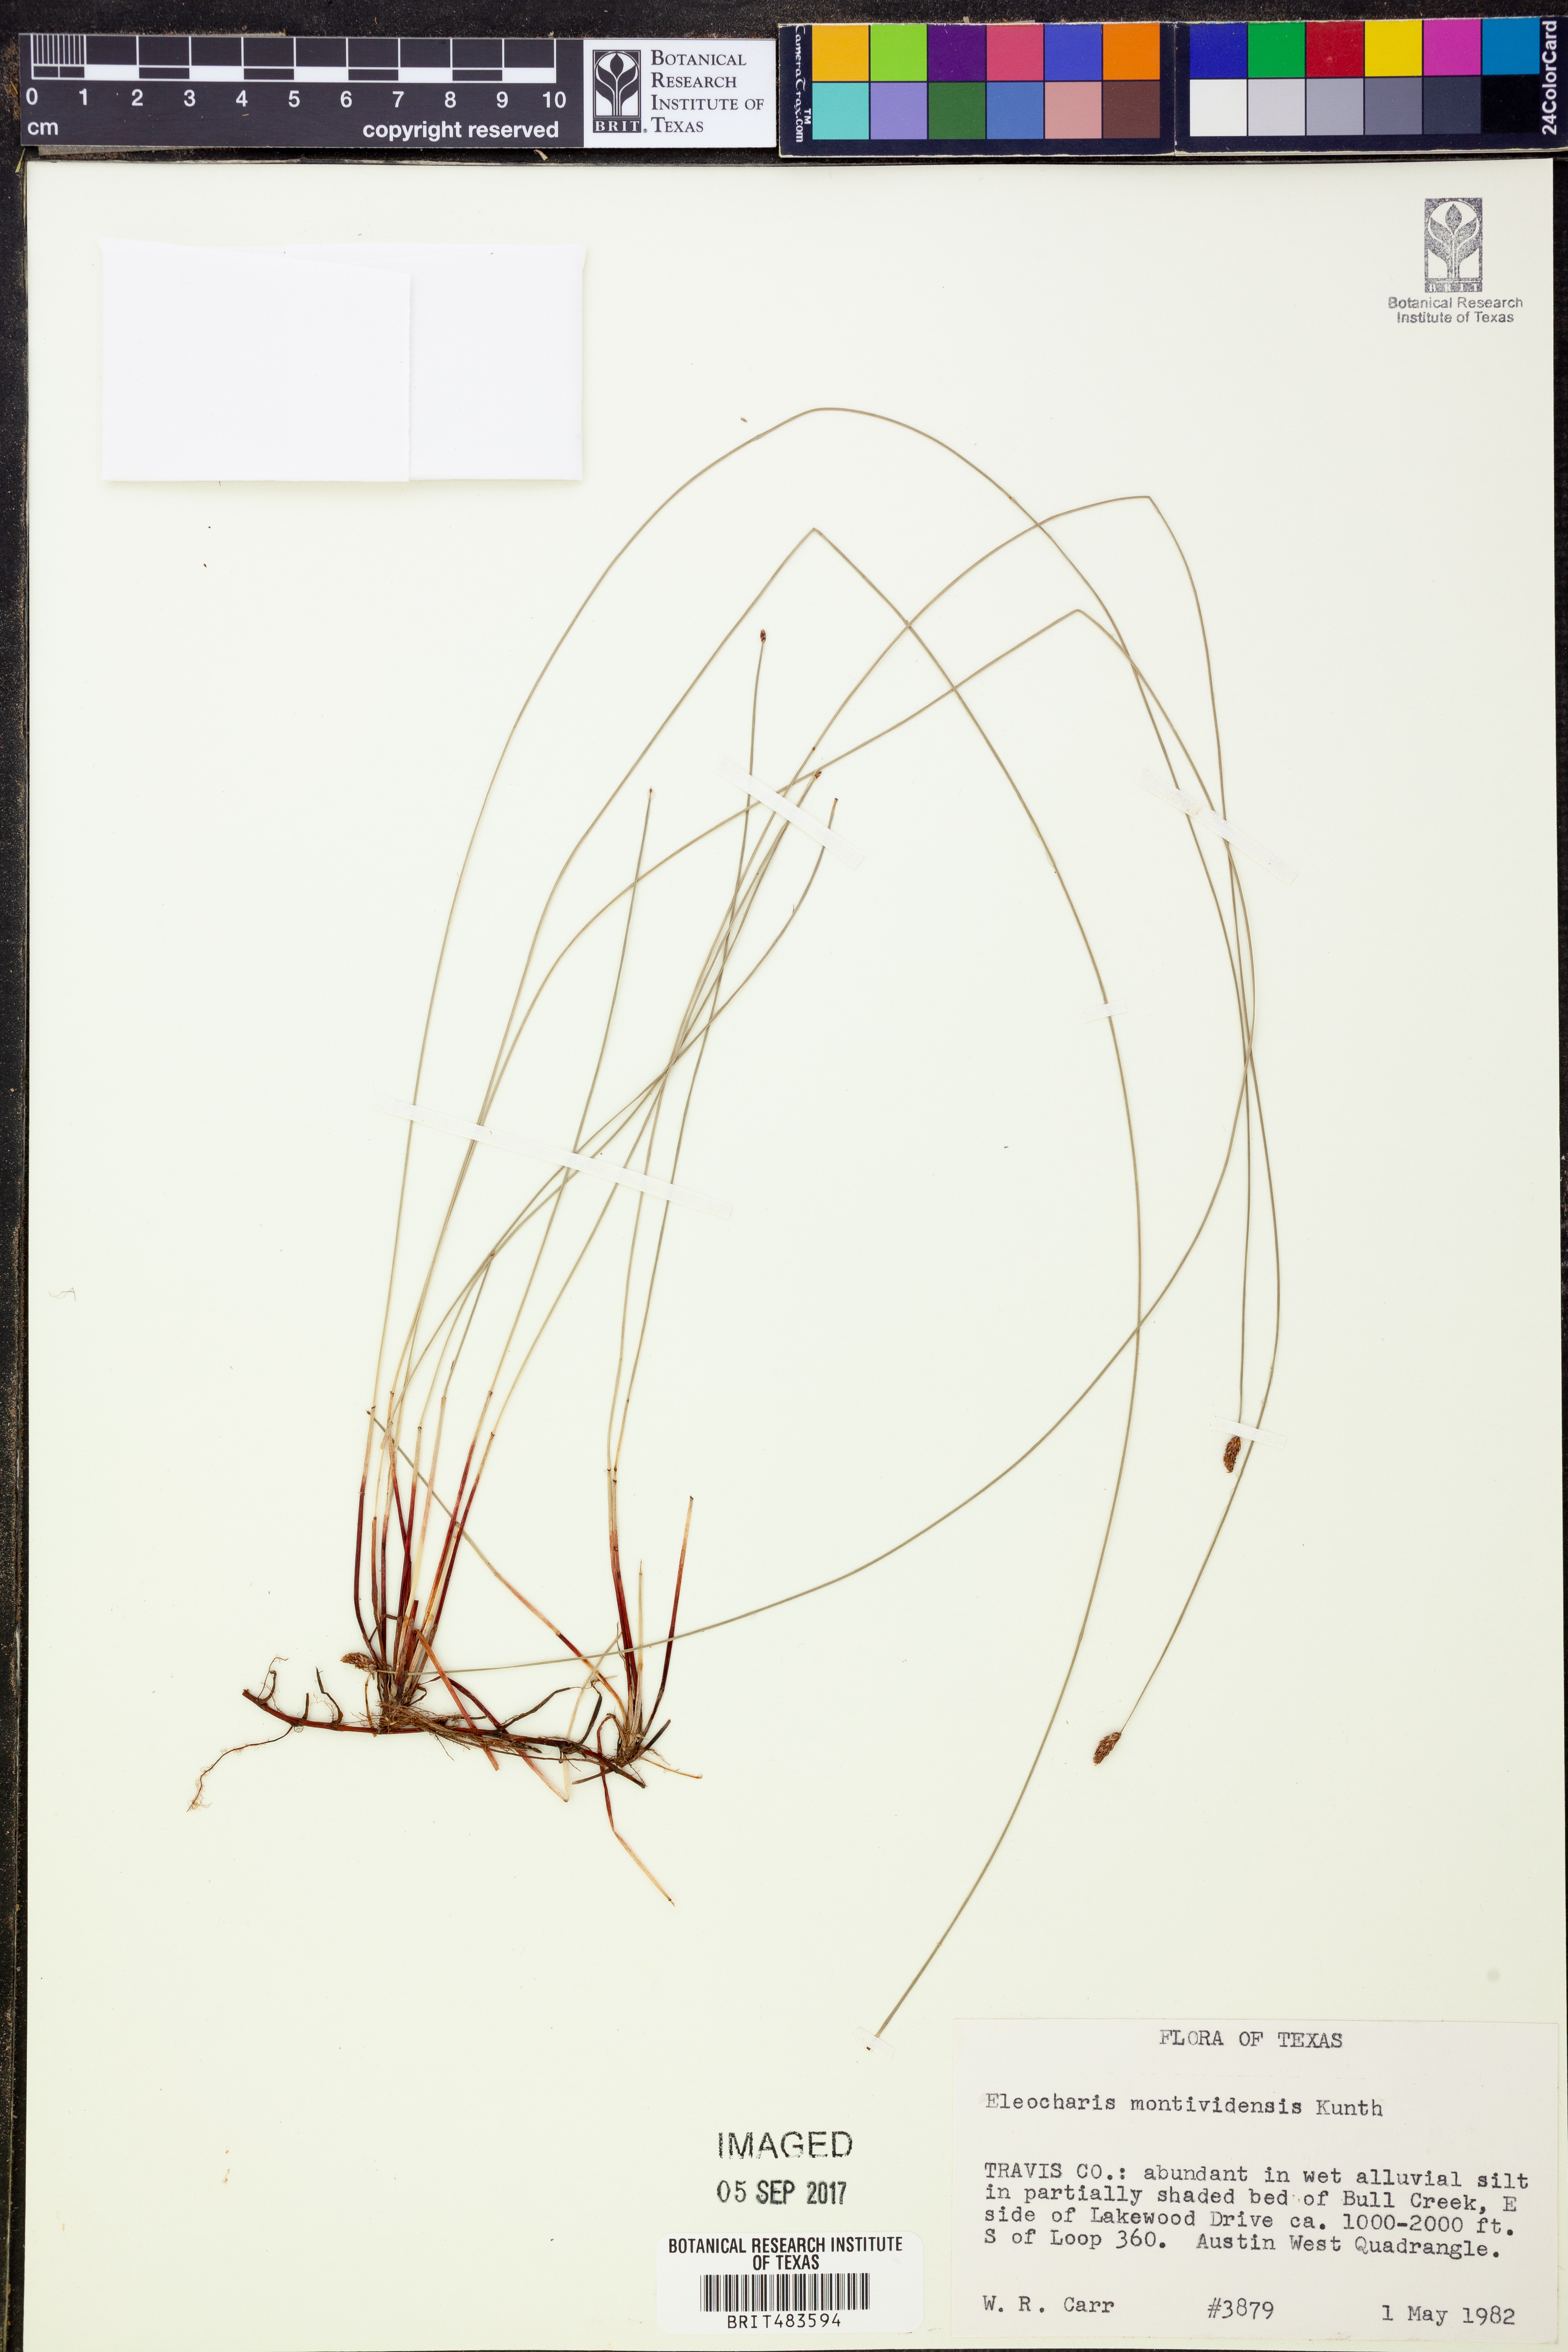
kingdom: Plantae
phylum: Tracheophyta
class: Liliopsida
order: Poales
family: Cyperaceae
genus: Eleocharis
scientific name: Eleocharis montevidensis
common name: Sand spike-rush
